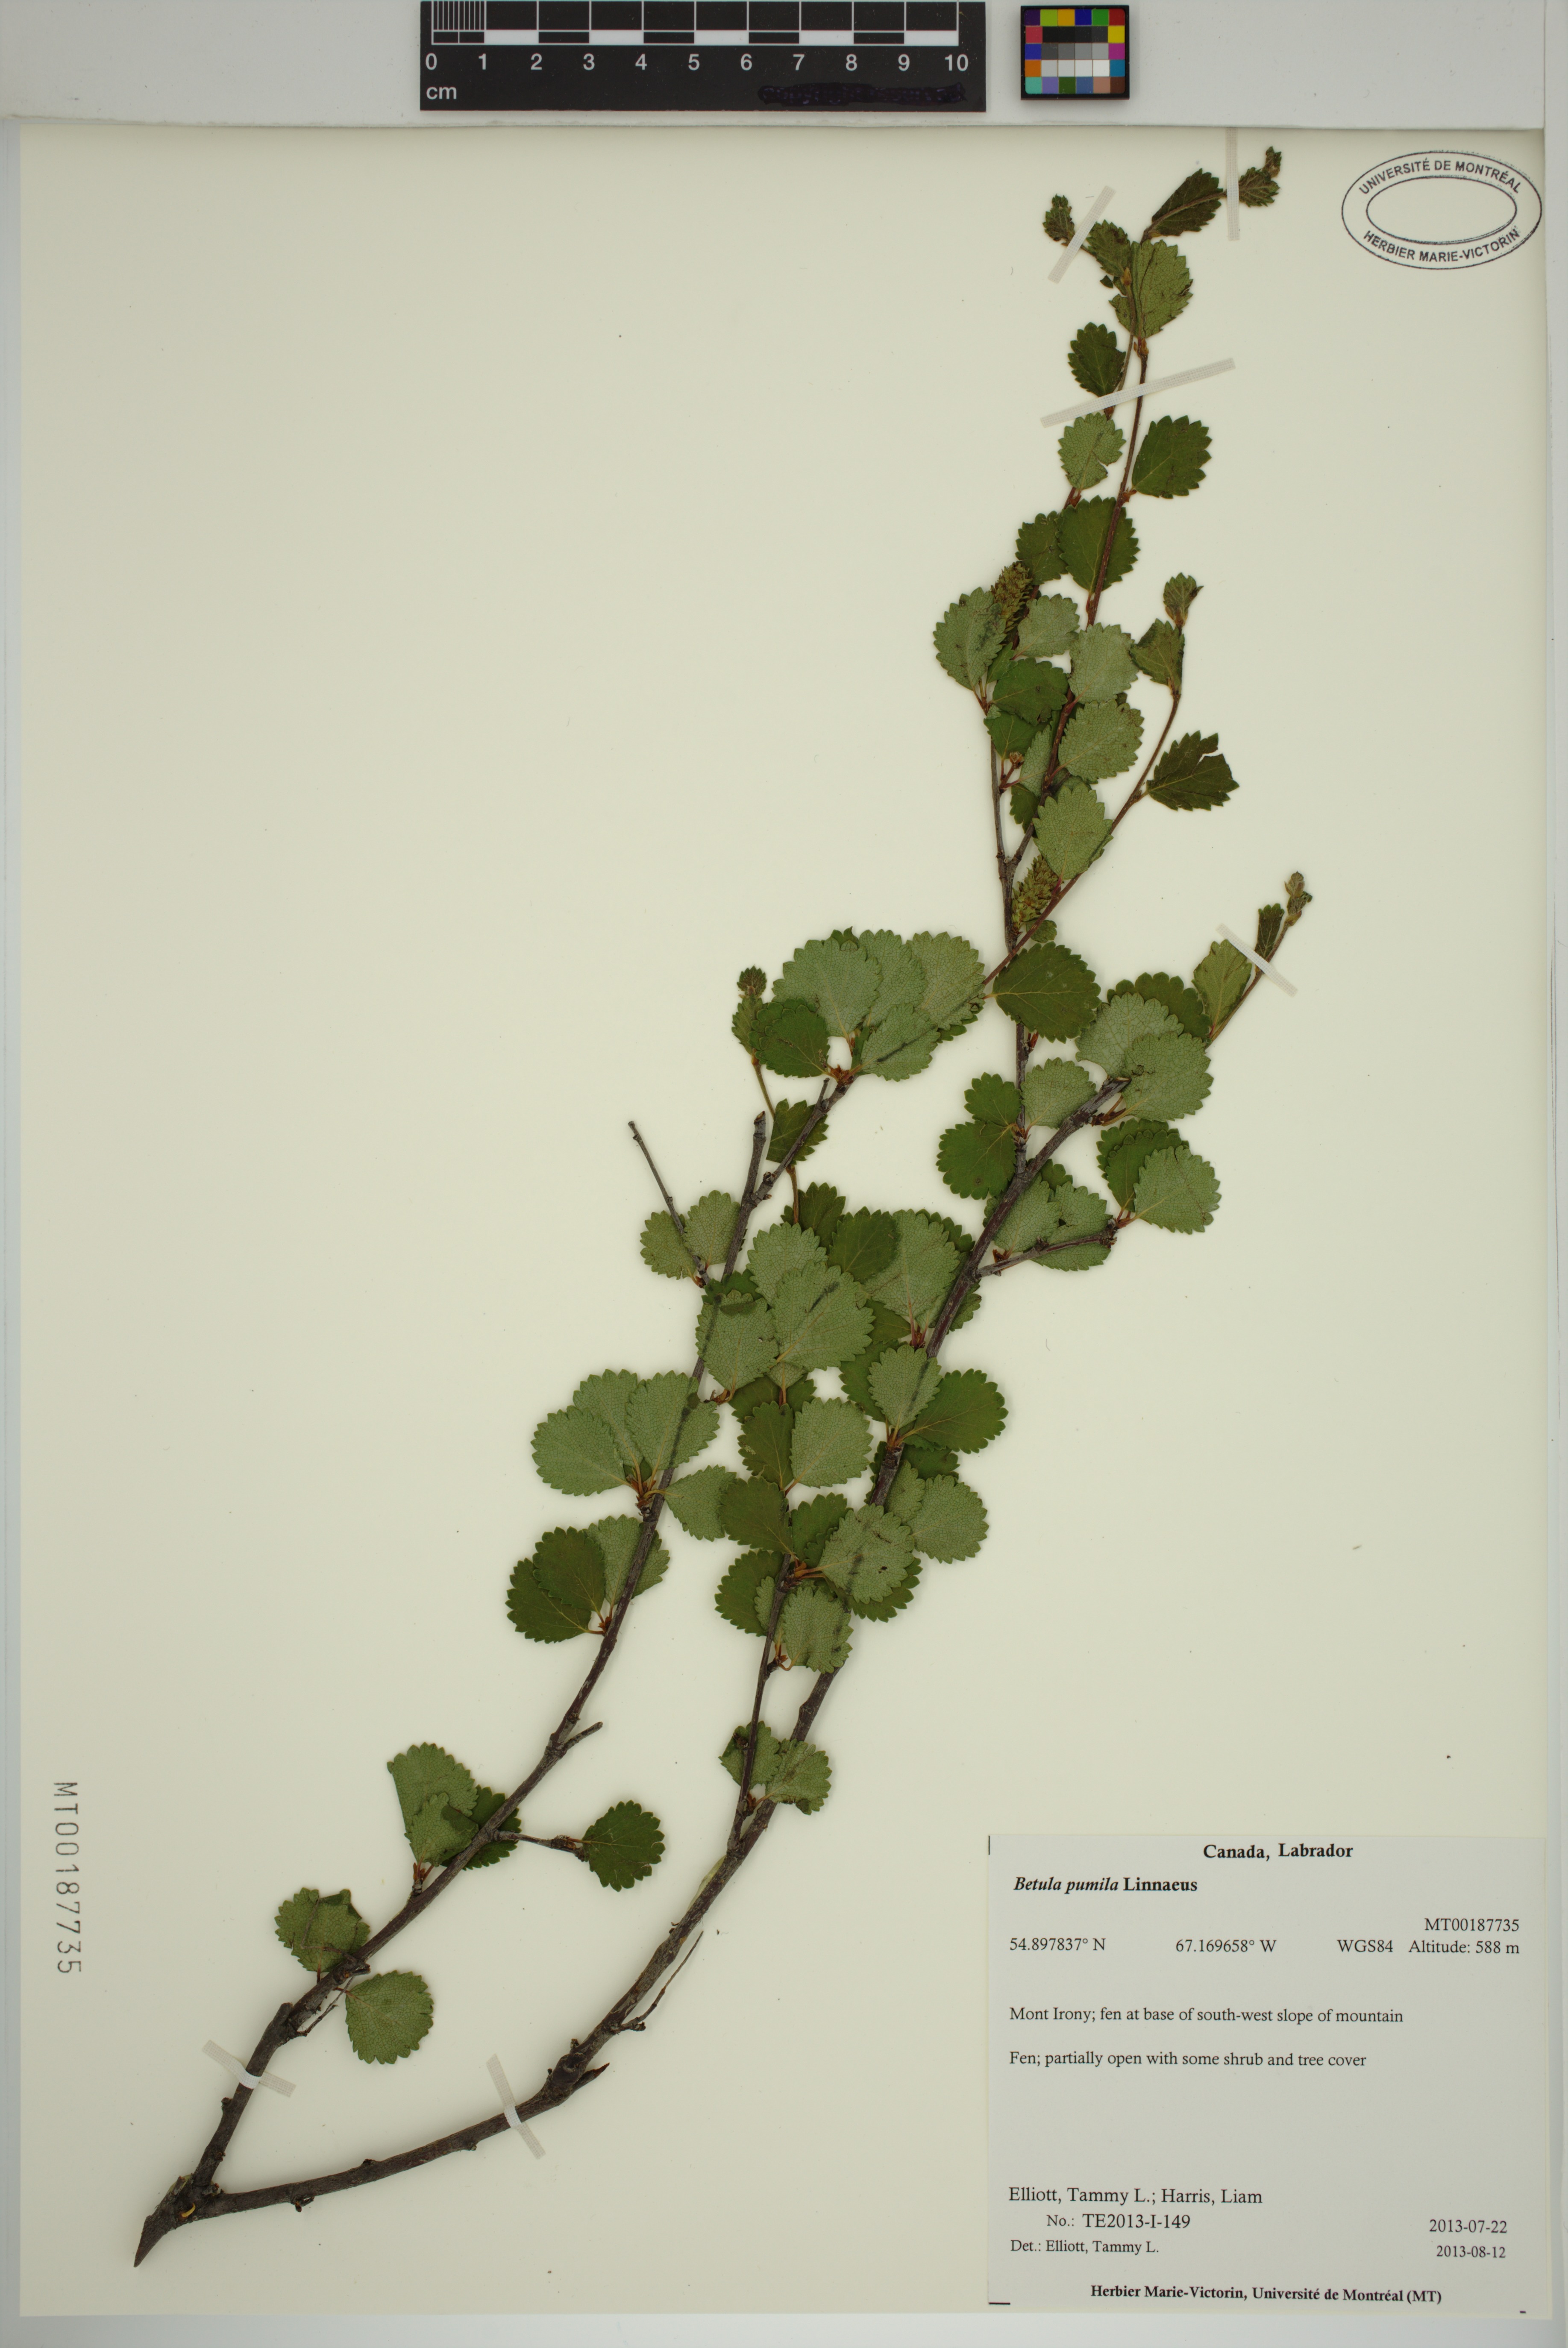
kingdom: Plantae
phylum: Tracheophyta
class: Magnoliopsida
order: Fagales
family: Betulaceae
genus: Betula
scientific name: Betula pumila
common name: Bog birch
